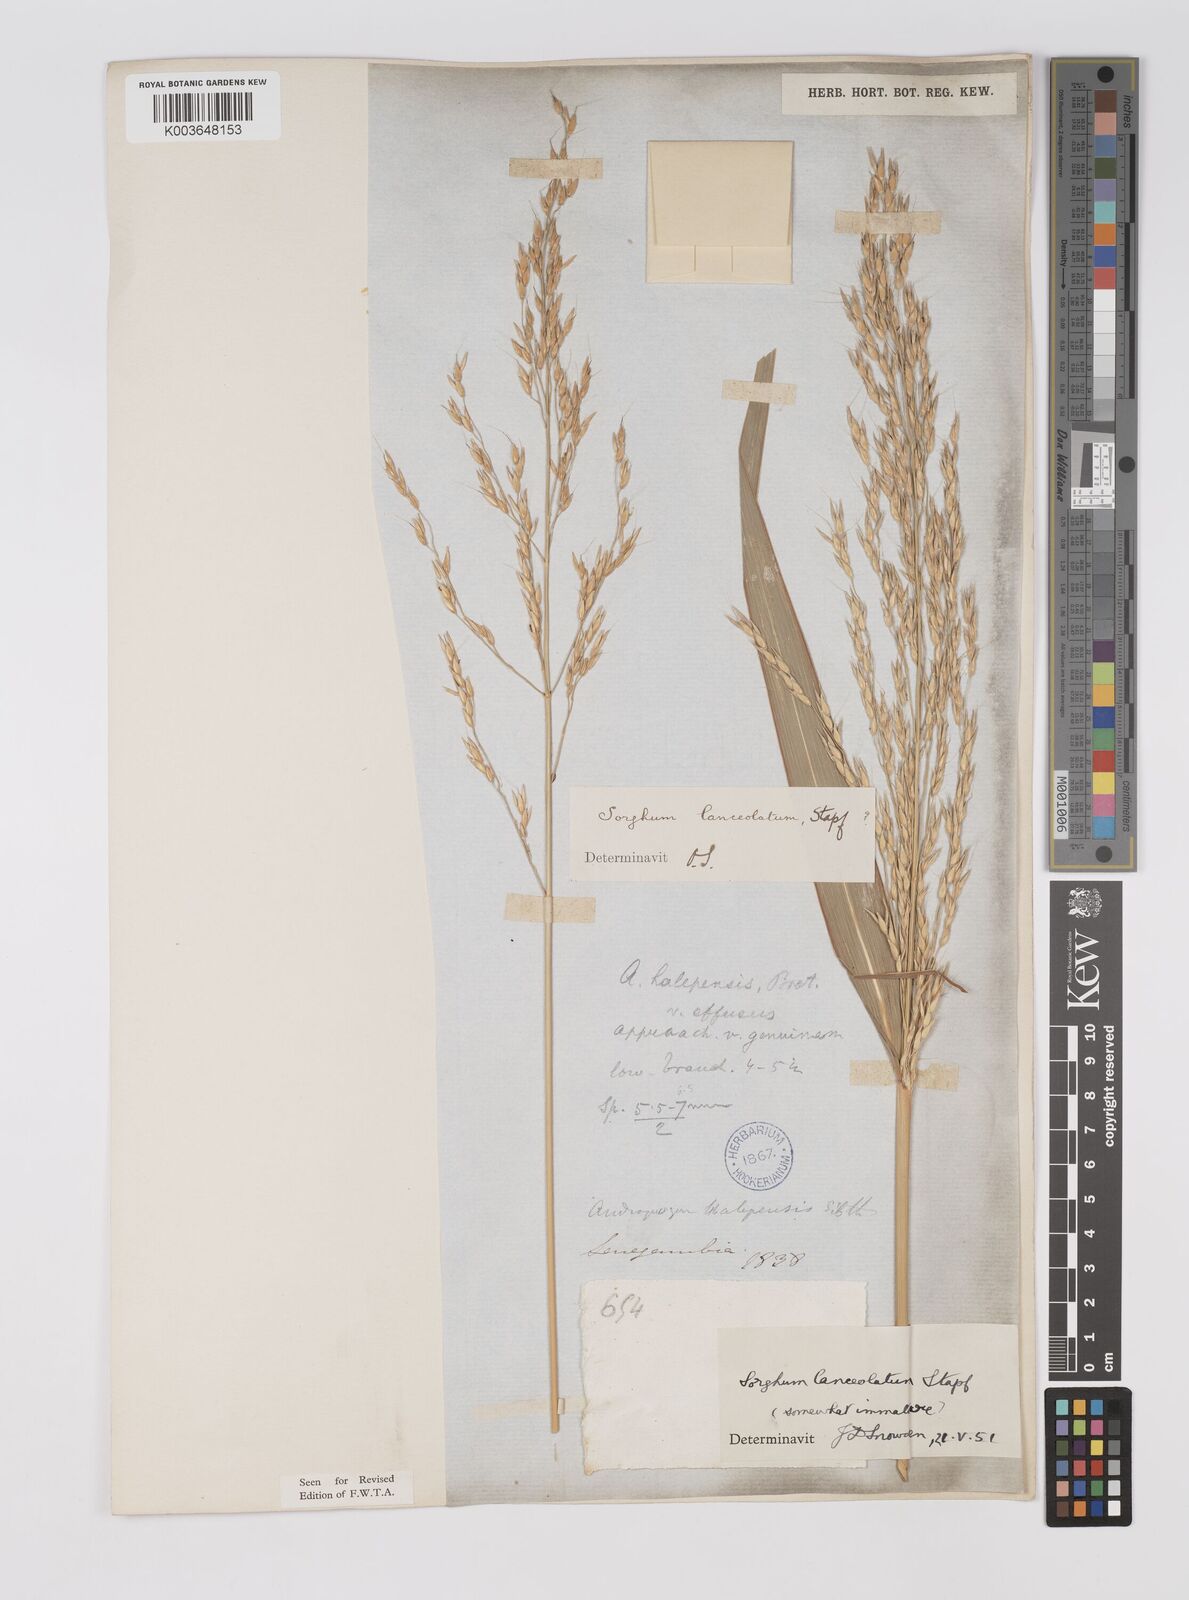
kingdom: Plantae
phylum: Tracheophyta
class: Liliopsida
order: Poales
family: Poaceae
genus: Sorghum
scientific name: Sorghum arundinaceum
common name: Sorghum
